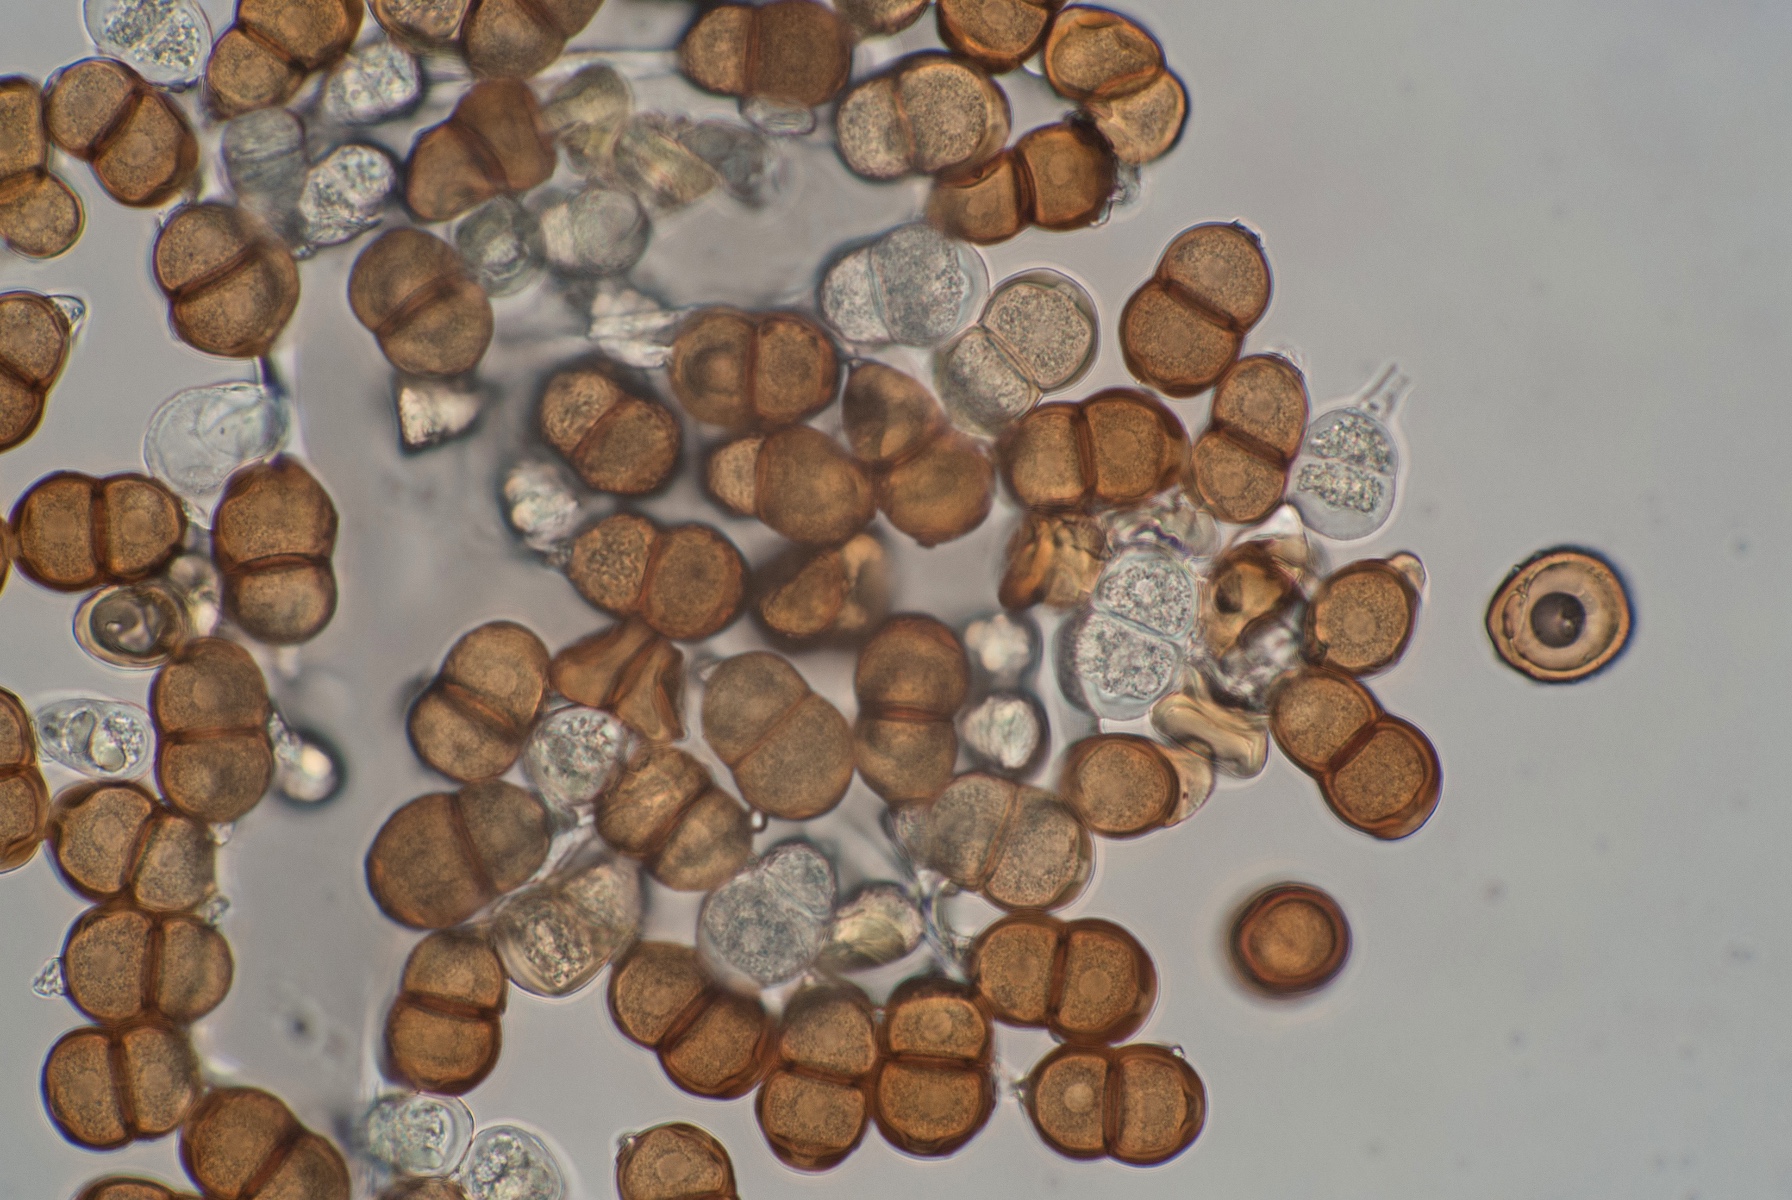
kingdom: Fungi
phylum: Basidiomycota
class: Pucciniomycetes
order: Pucciniales
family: Pucciniaceae
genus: Puccinia
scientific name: Puccinia pulverulenta
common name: dueurt-tvecellerust
